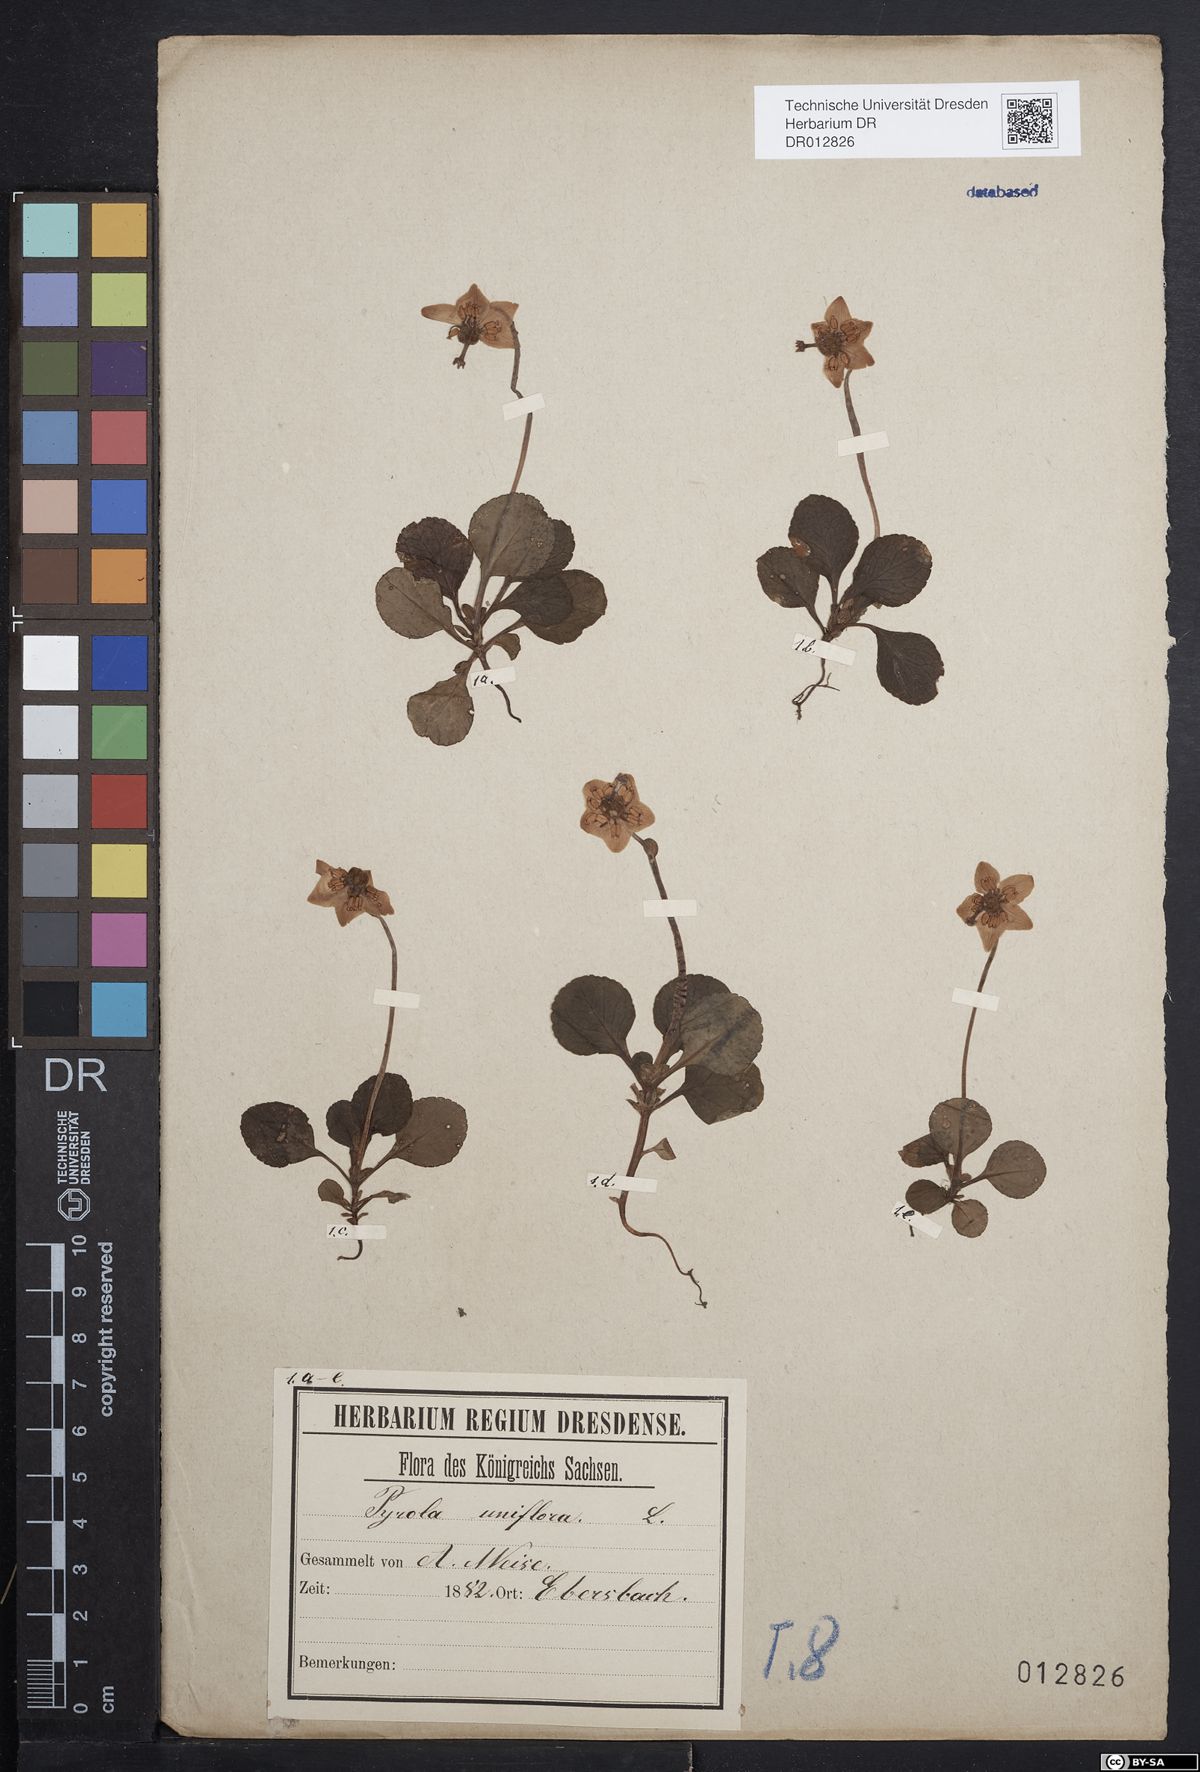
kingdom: Plantae
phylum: Tracheophyta
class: Magnoliopsida
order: Ericales
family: Ericaceae
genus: Moneses
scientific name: Moneses uniflora
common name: One-flowered wintergreen
